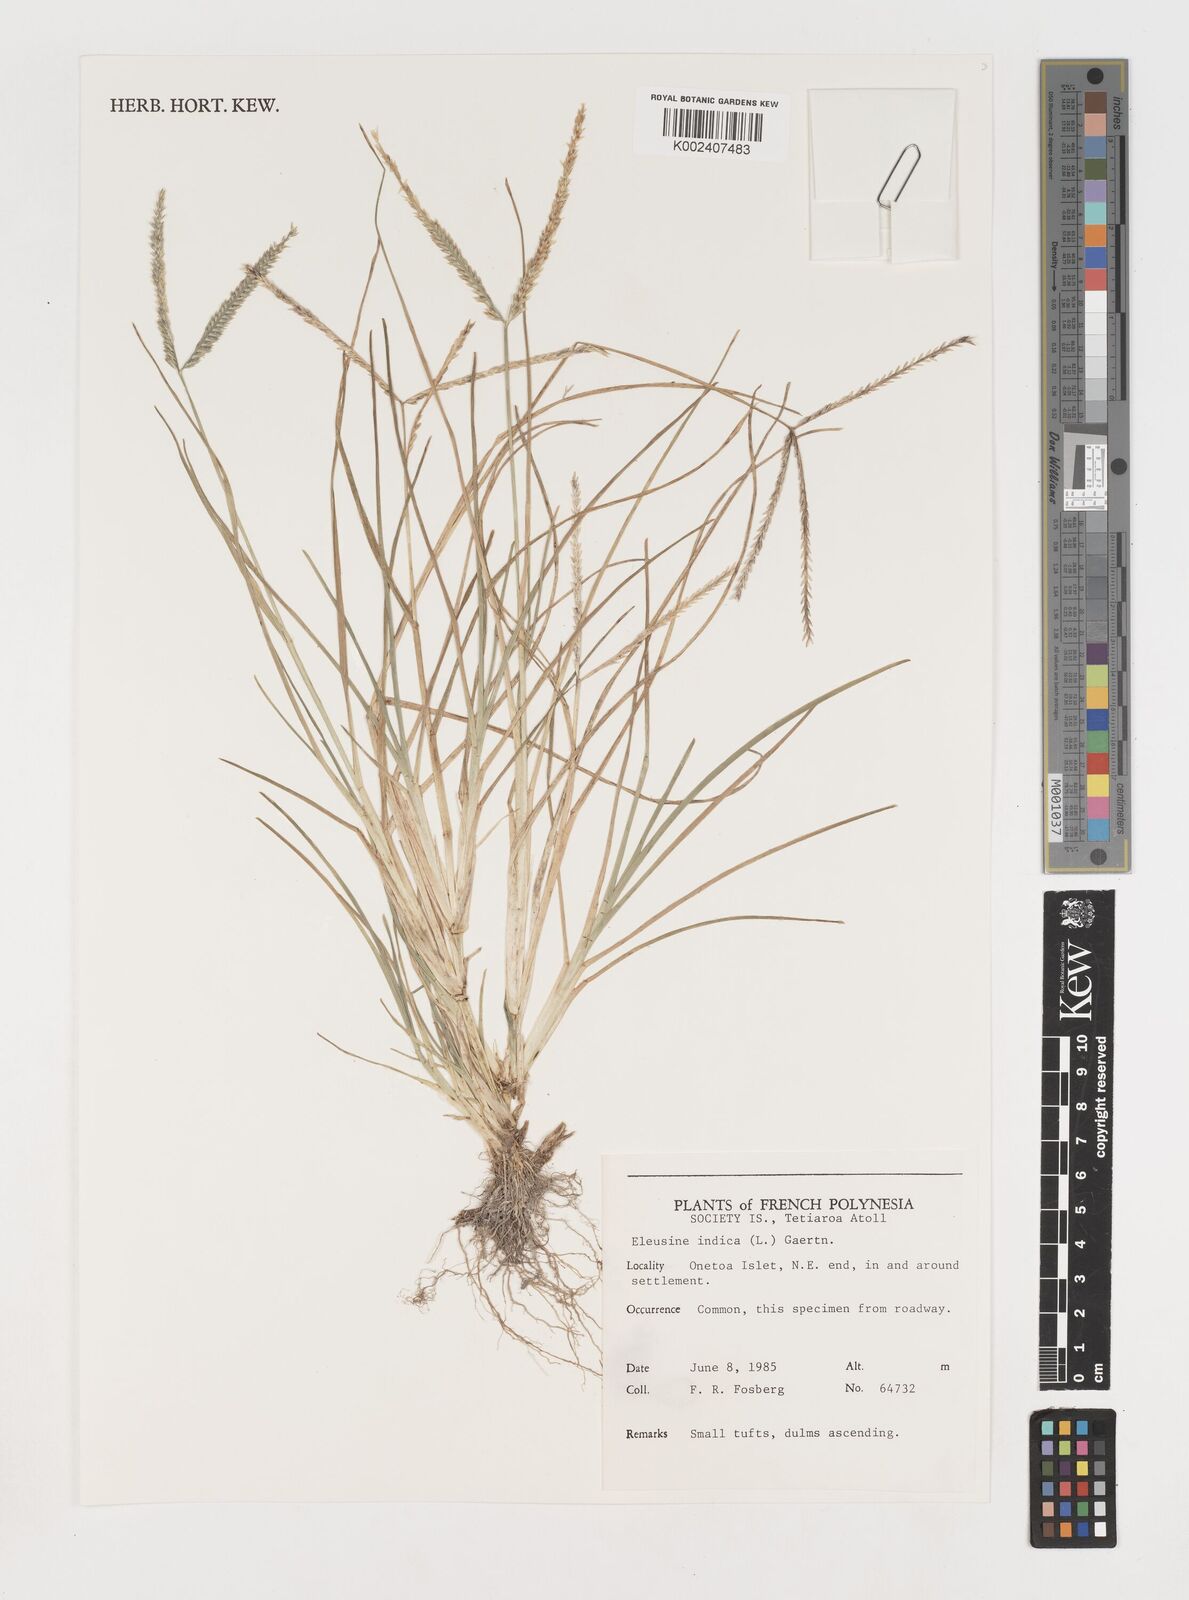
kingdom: Plantae
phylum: Tracheophyta
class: Liliopsida
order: Poales
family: Poaceae
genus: Eleusine
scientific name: Eleusine indica
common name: Yard-grass
